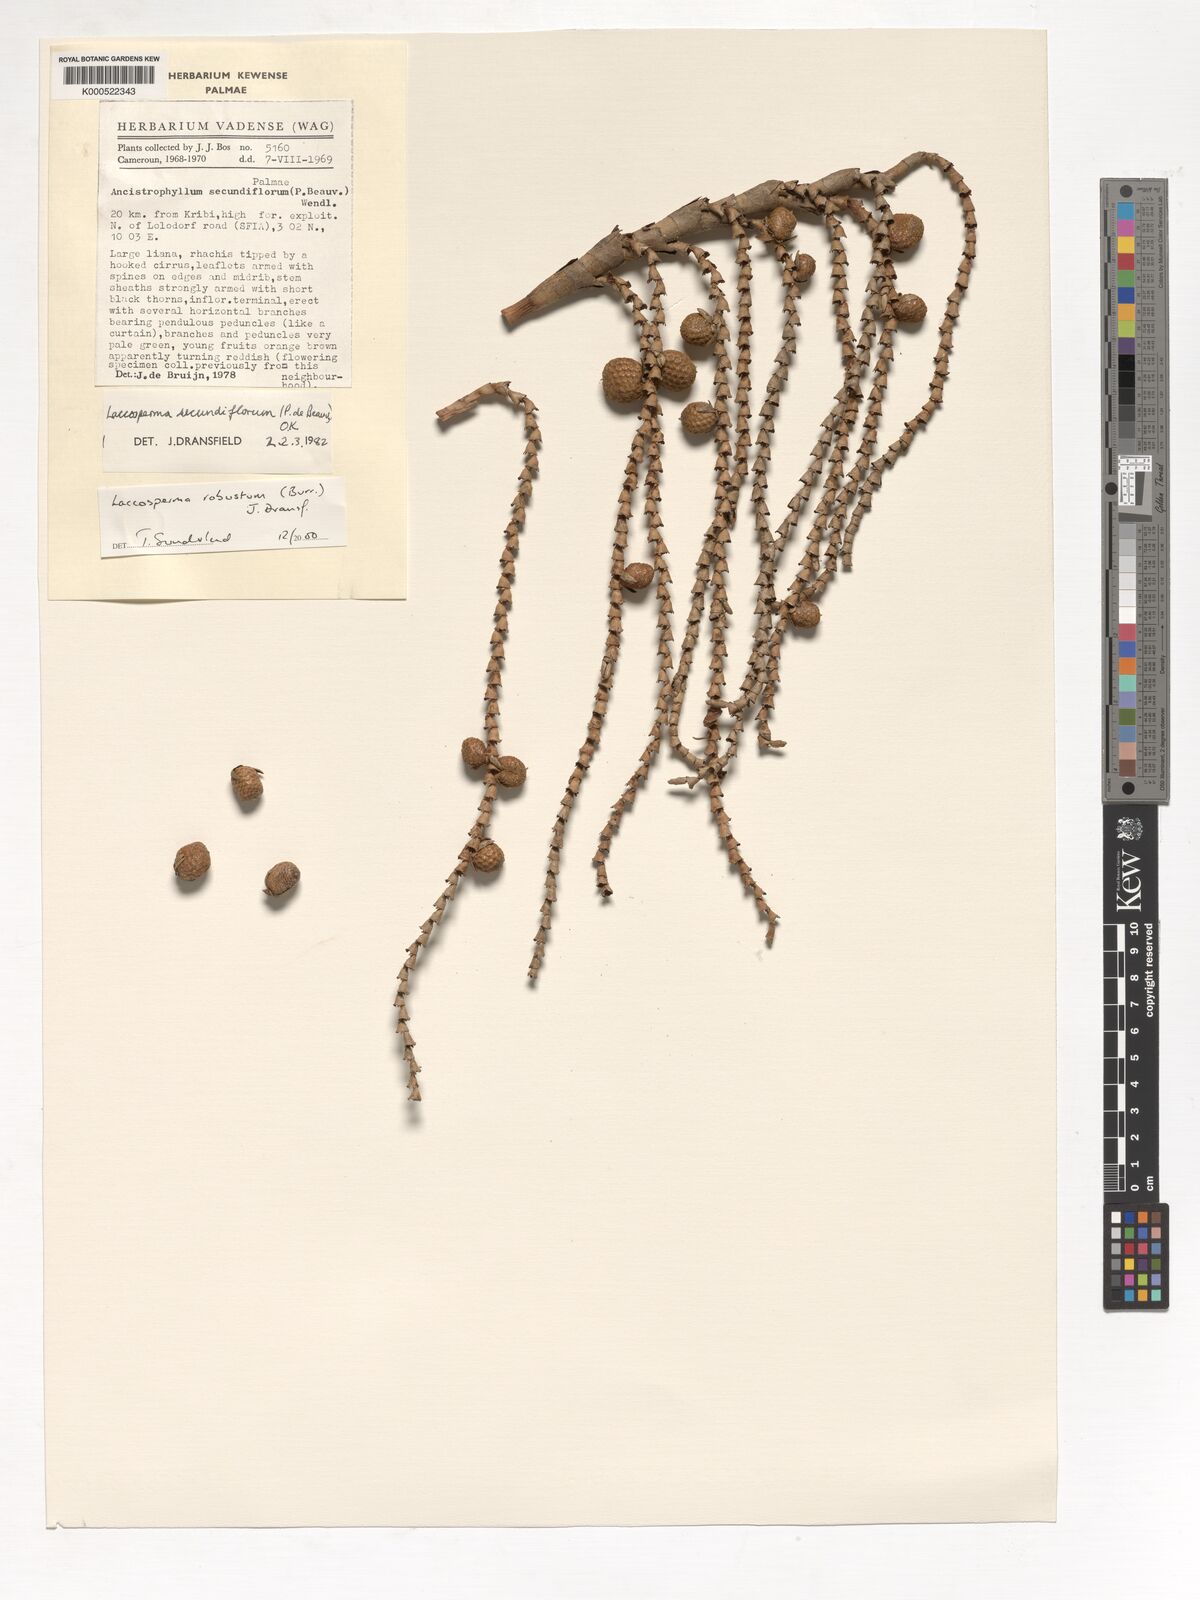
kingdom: Plantae
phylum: Tracheophyta
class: Liliopsida
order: Arecales
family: Arecaceae
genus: Laccosperma
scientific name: Laccosperma robustum
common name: Rattan
